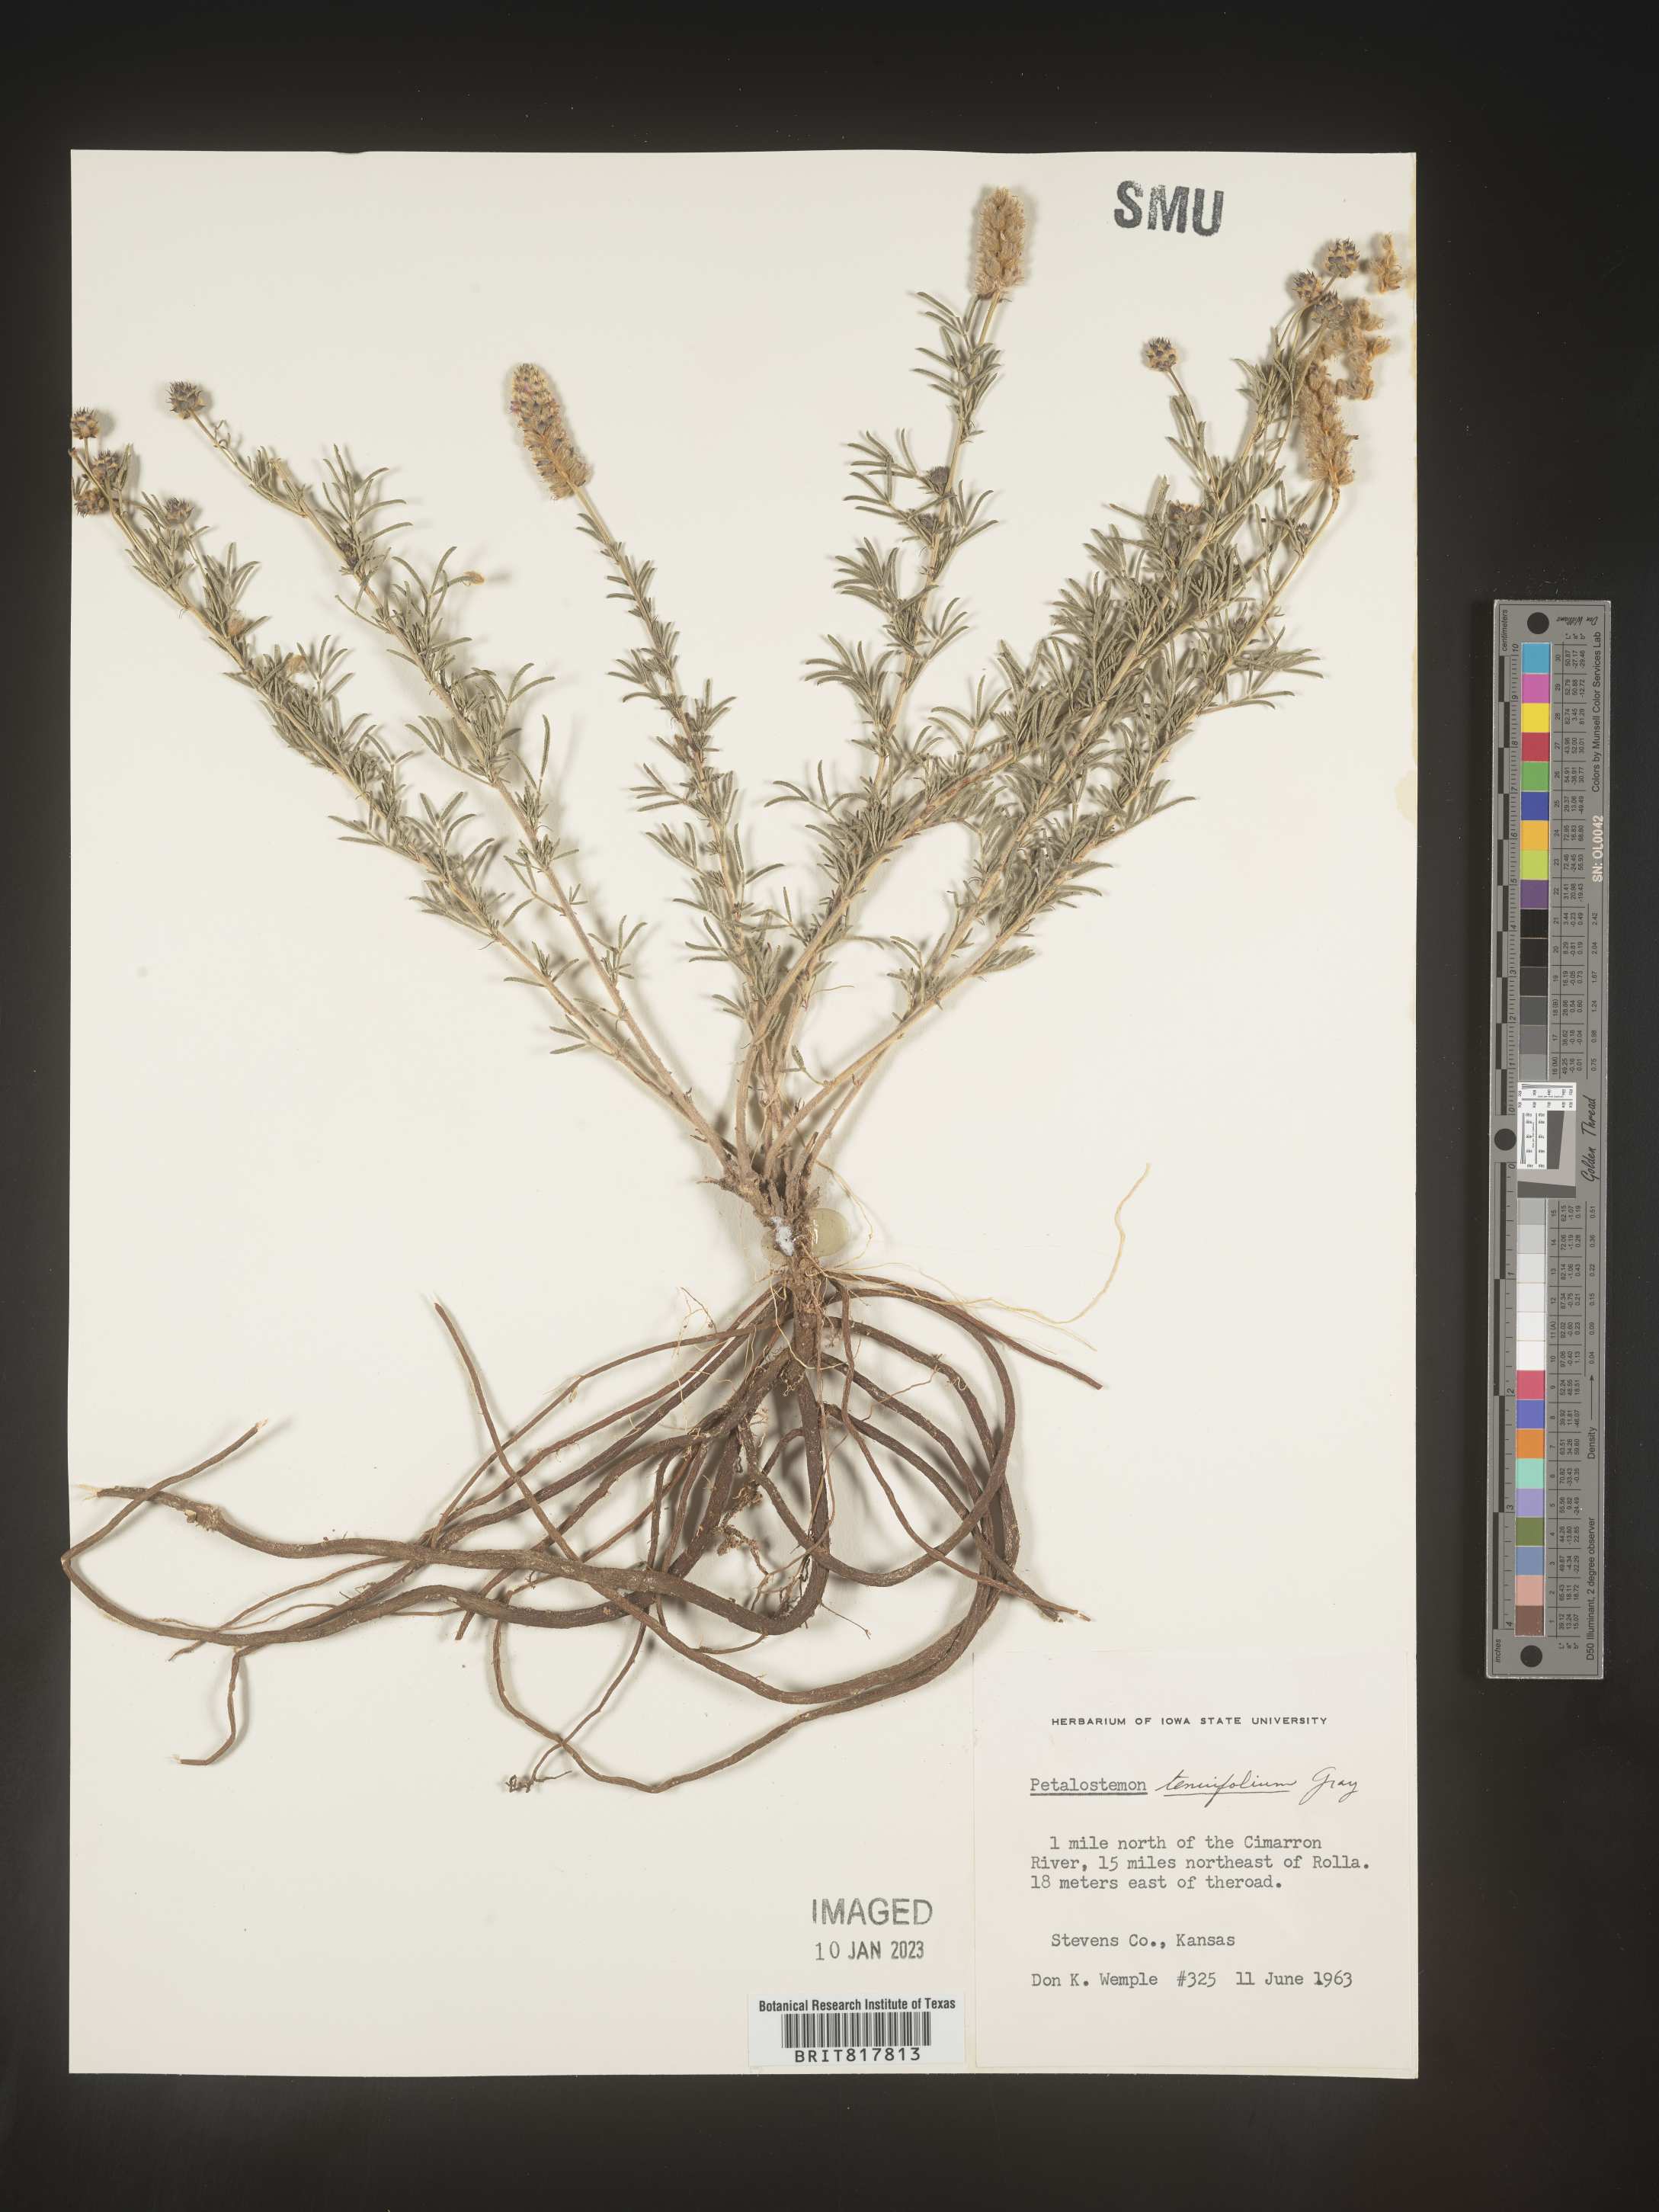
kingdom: Plantae
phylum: Tracheophyta
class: Magnoliopsida
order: Fabales
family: Fabaceae
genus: Dalea
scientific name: Dalea
